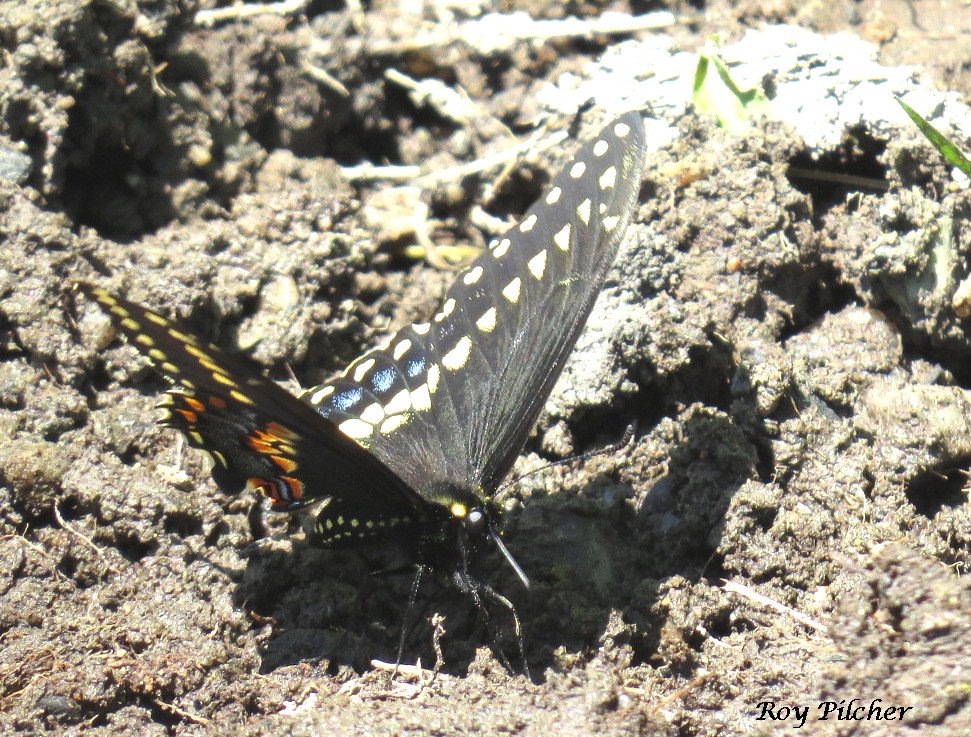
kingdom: Animalia
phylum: Arthropoda
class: Insecta
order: Lepidoptera
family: Papilionidae
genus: Papilio
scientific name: Papilio polyxenes
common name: Black Swallowtail
